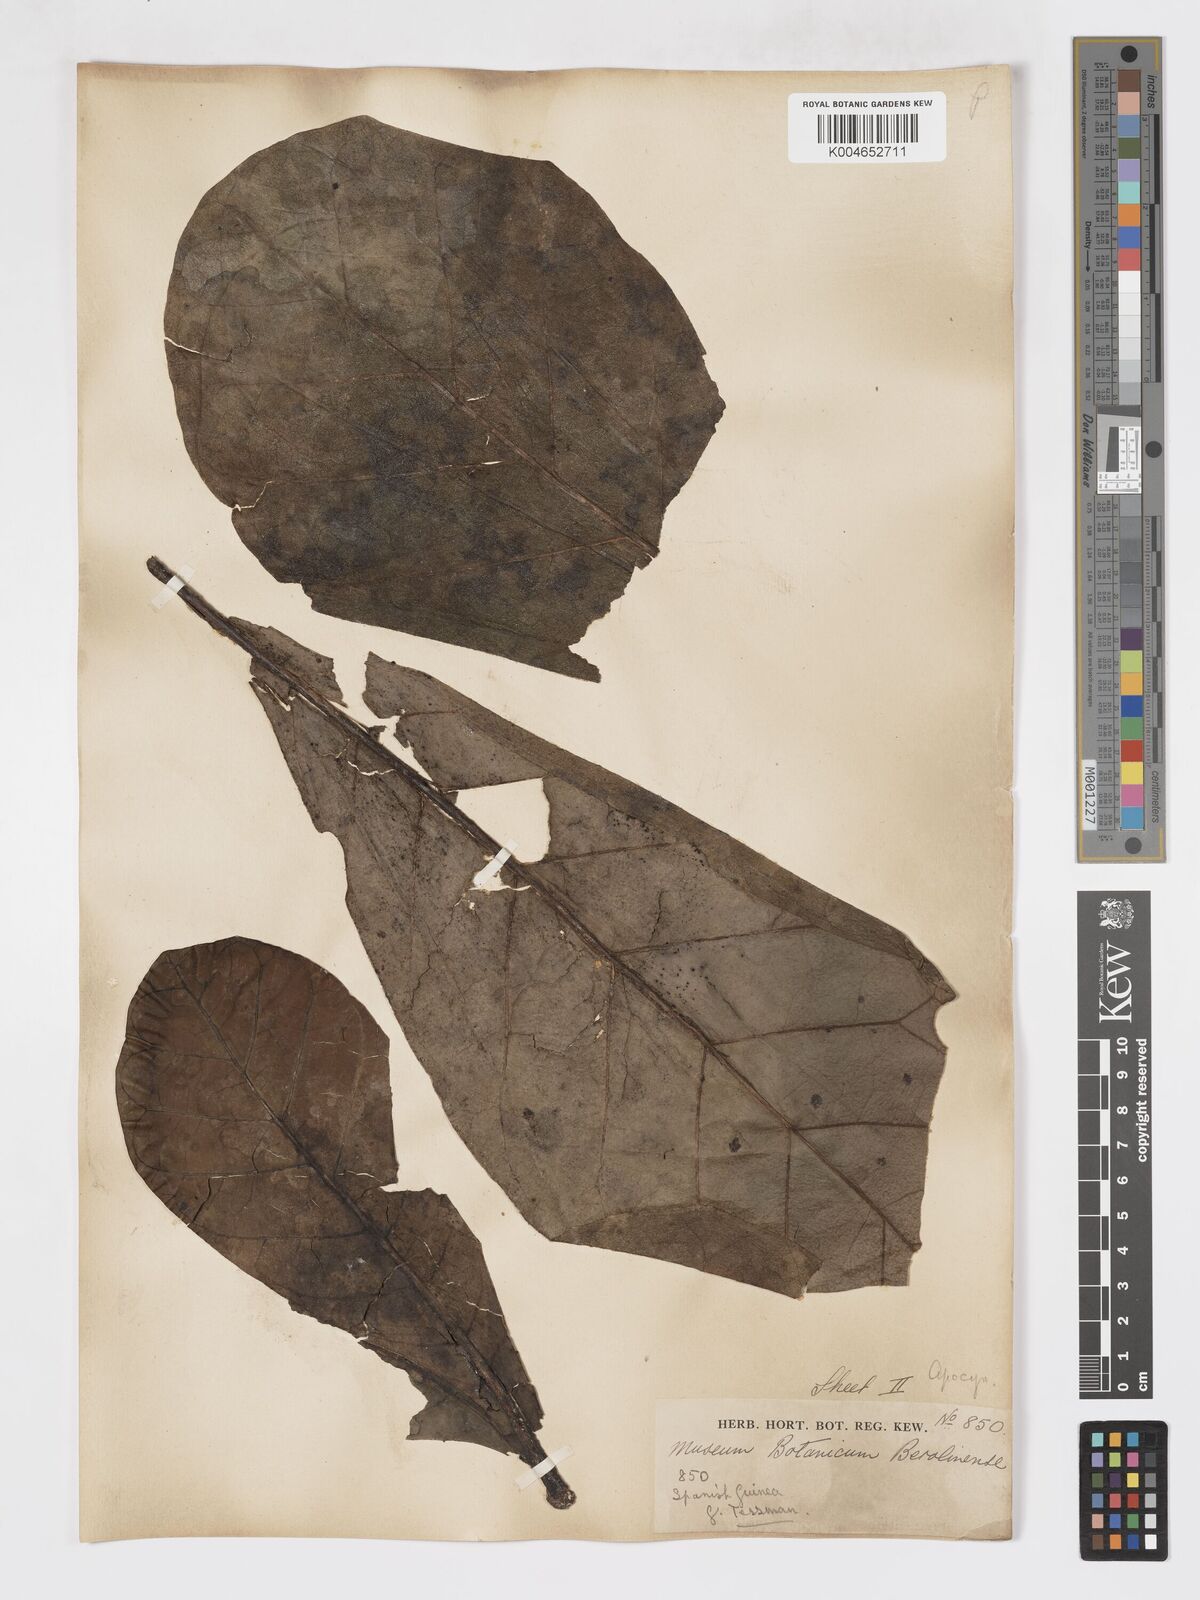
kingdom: Plantae
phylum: Tracheophyta
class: Magnoliopsida
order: Gentianales
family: Rubiaceae
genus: Brenania
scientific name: Brenania brieyi
